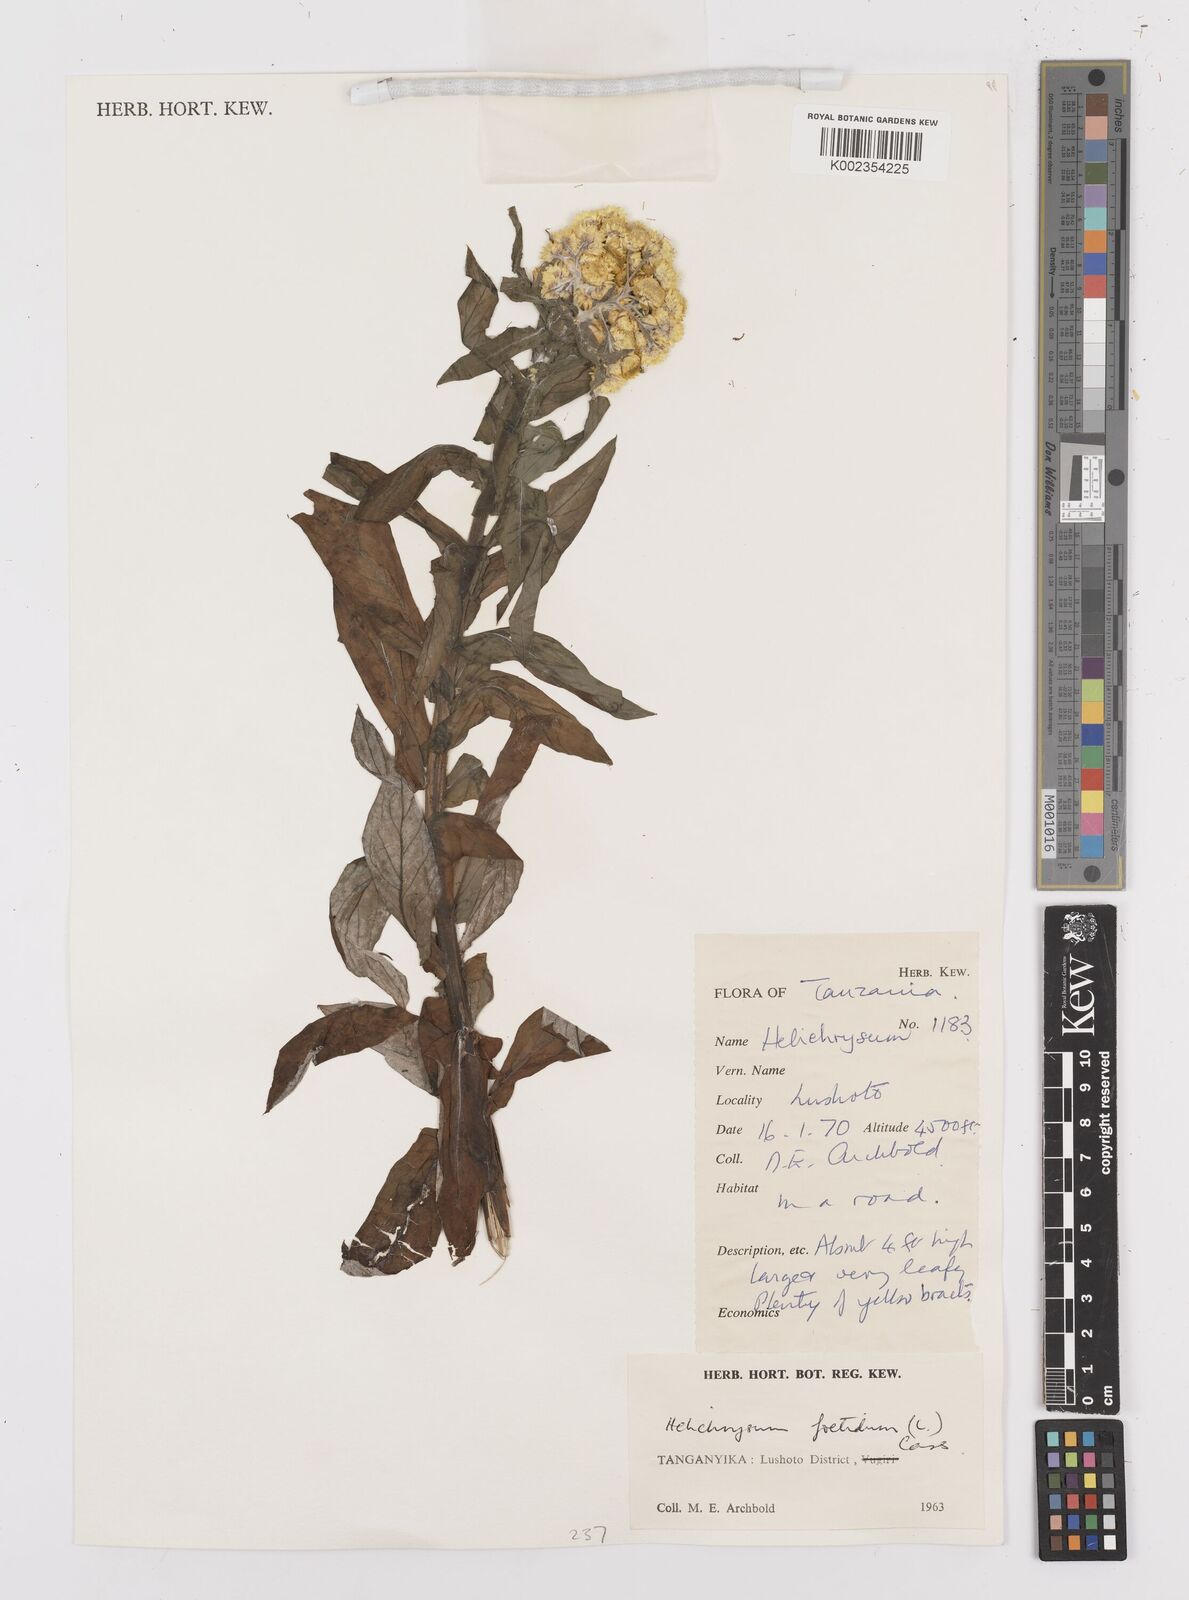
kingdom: Plantae
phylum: Tracheophyta
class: Magnoliopsida
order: Asterales
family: Asteraceae
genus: Helichrysum
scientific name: Helichrysum
